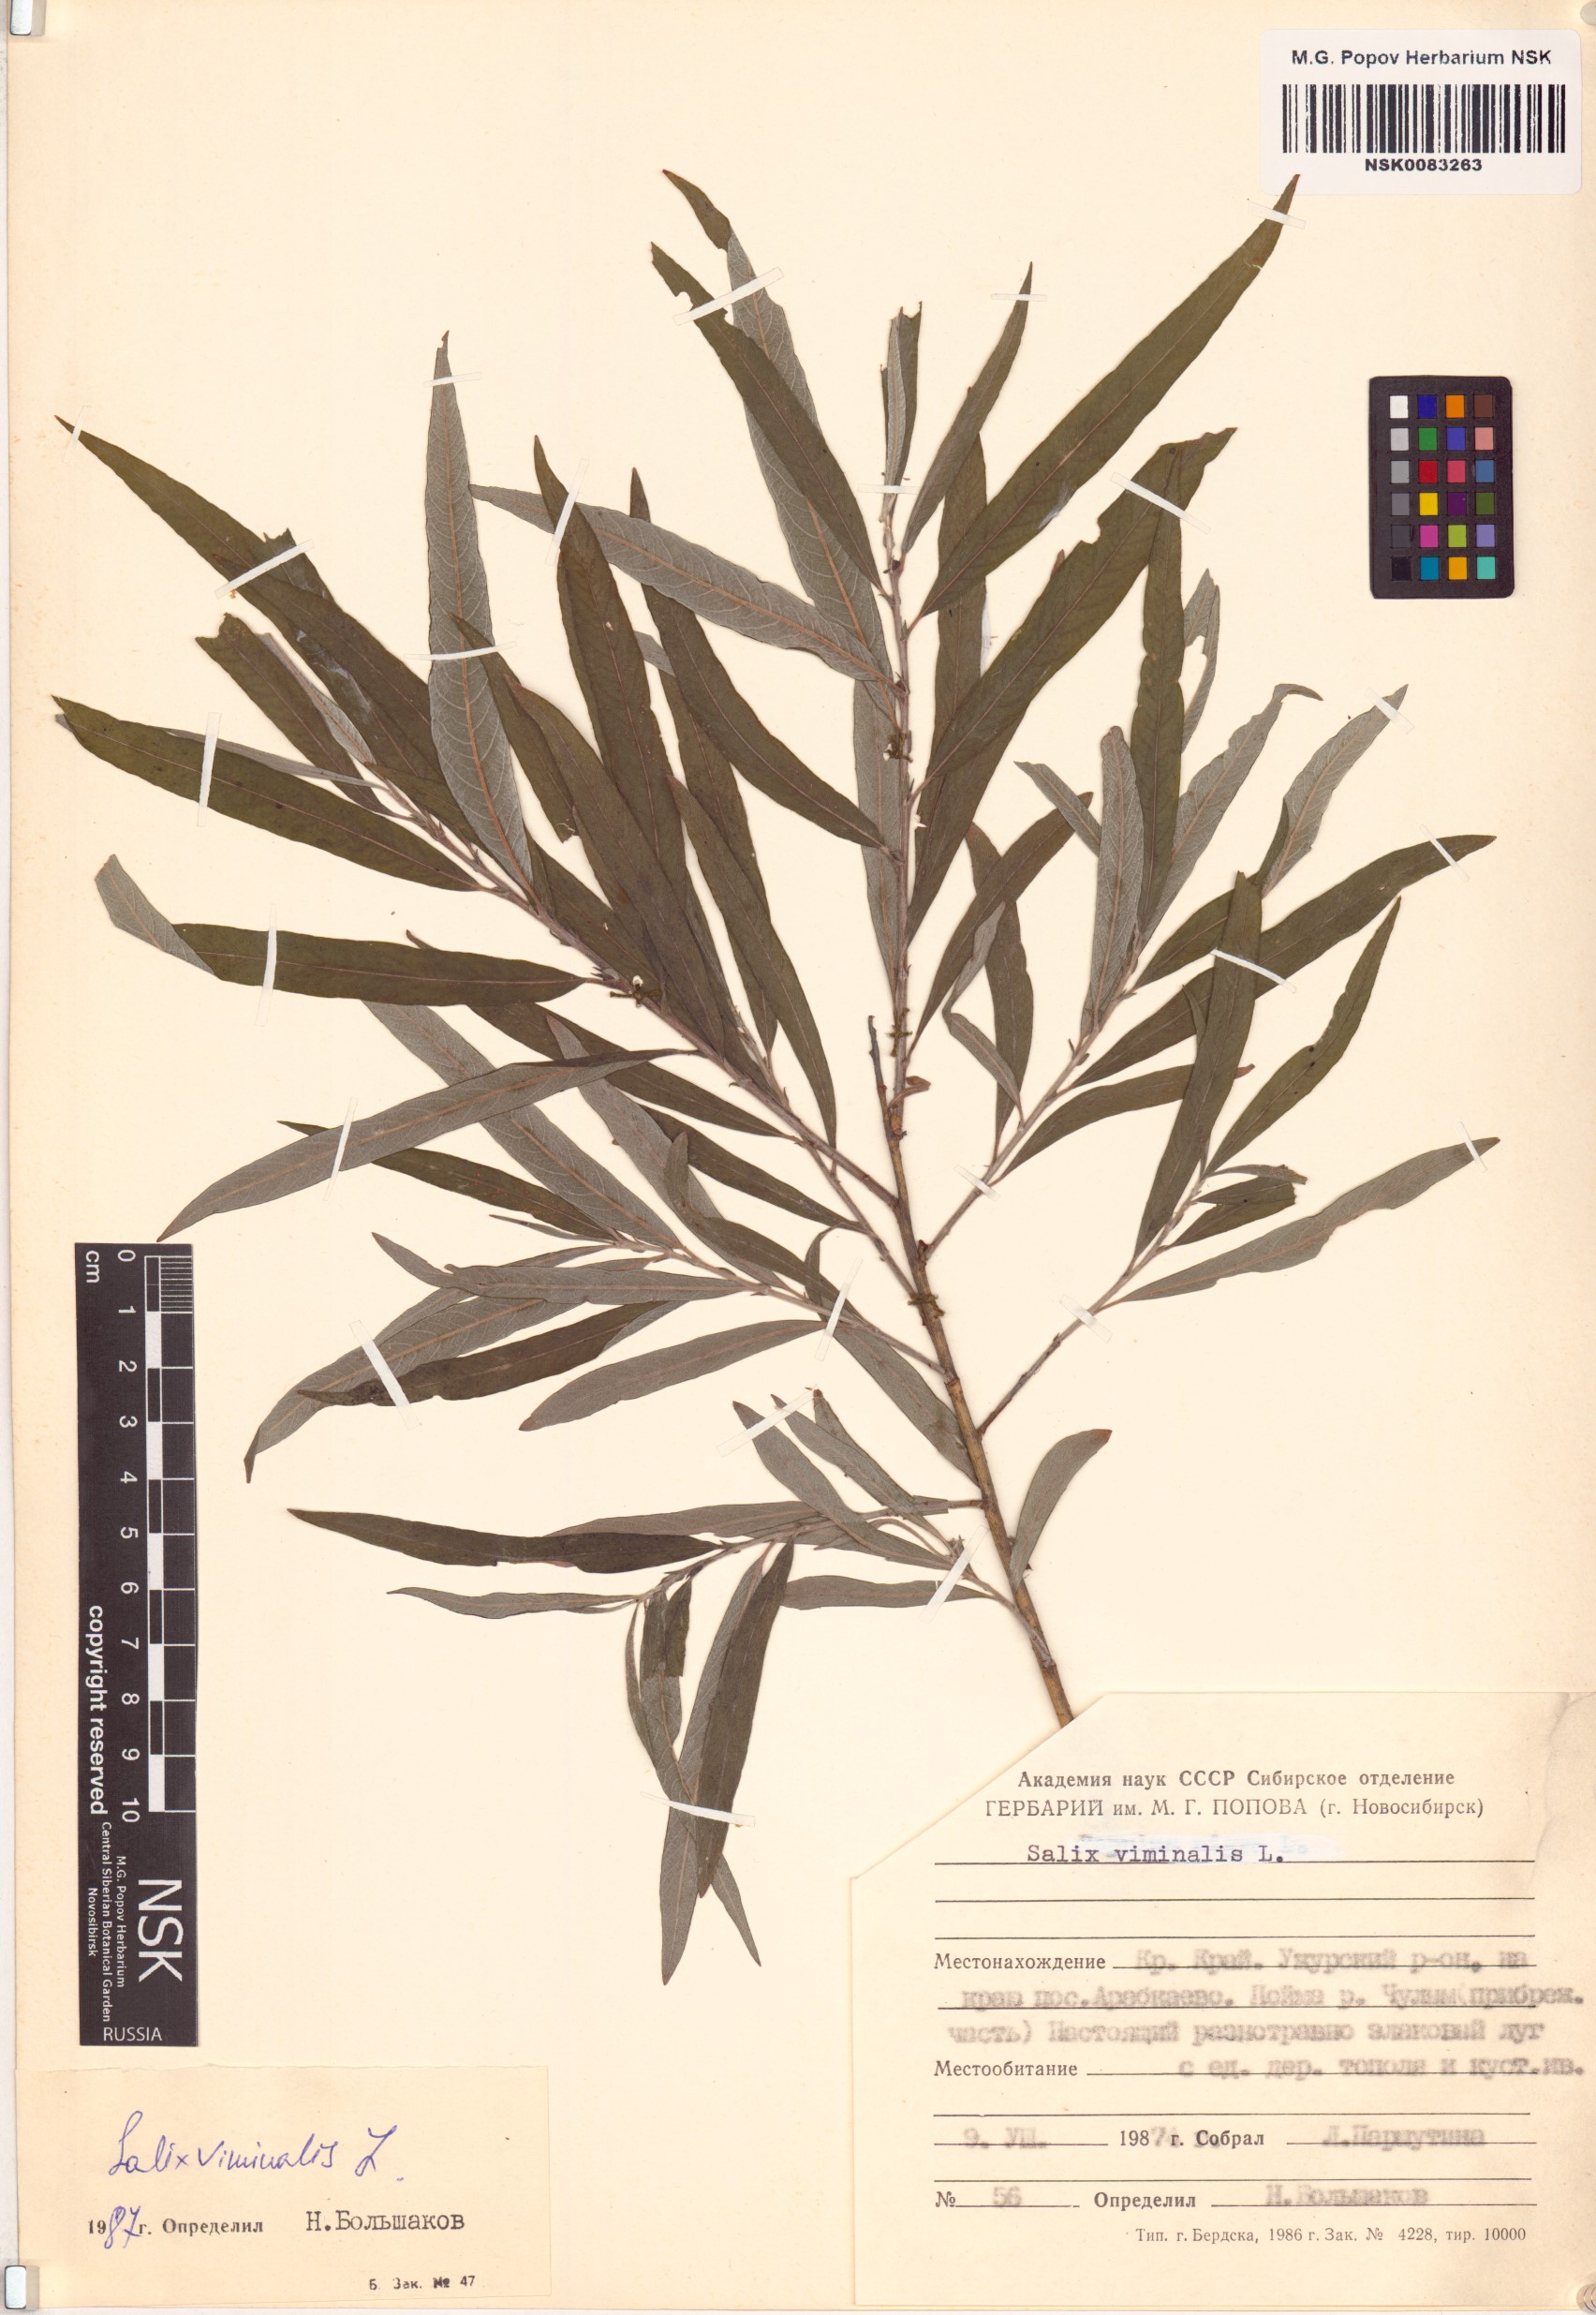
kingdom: Plantae
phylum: Tracheophyta
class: Magnoliopsida
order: Malpighiales
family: Salicaceae
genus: Salix
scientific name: Salix viminalis
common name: Osier
